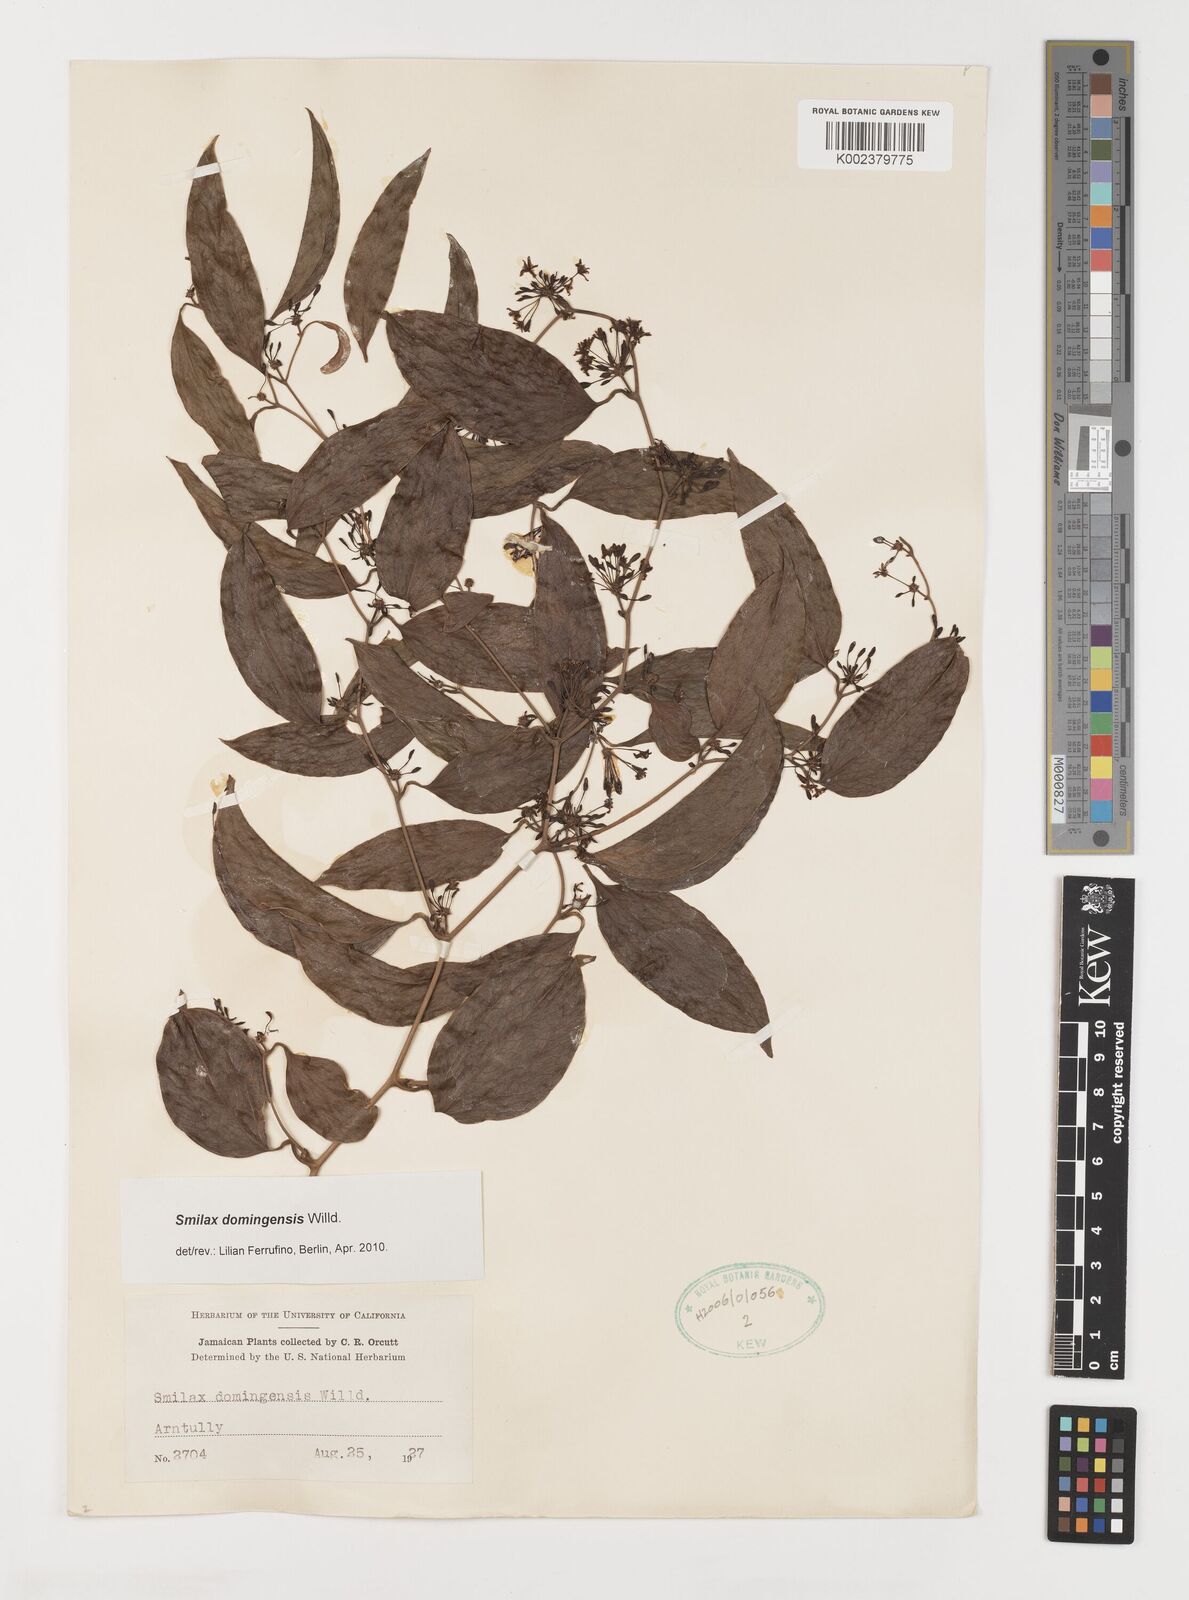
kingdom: Plantae
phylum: Tracheophyta
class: Liliopsida
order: Liliales
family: Smilacaceae
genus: Smilax
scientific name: Smilax domingensis
